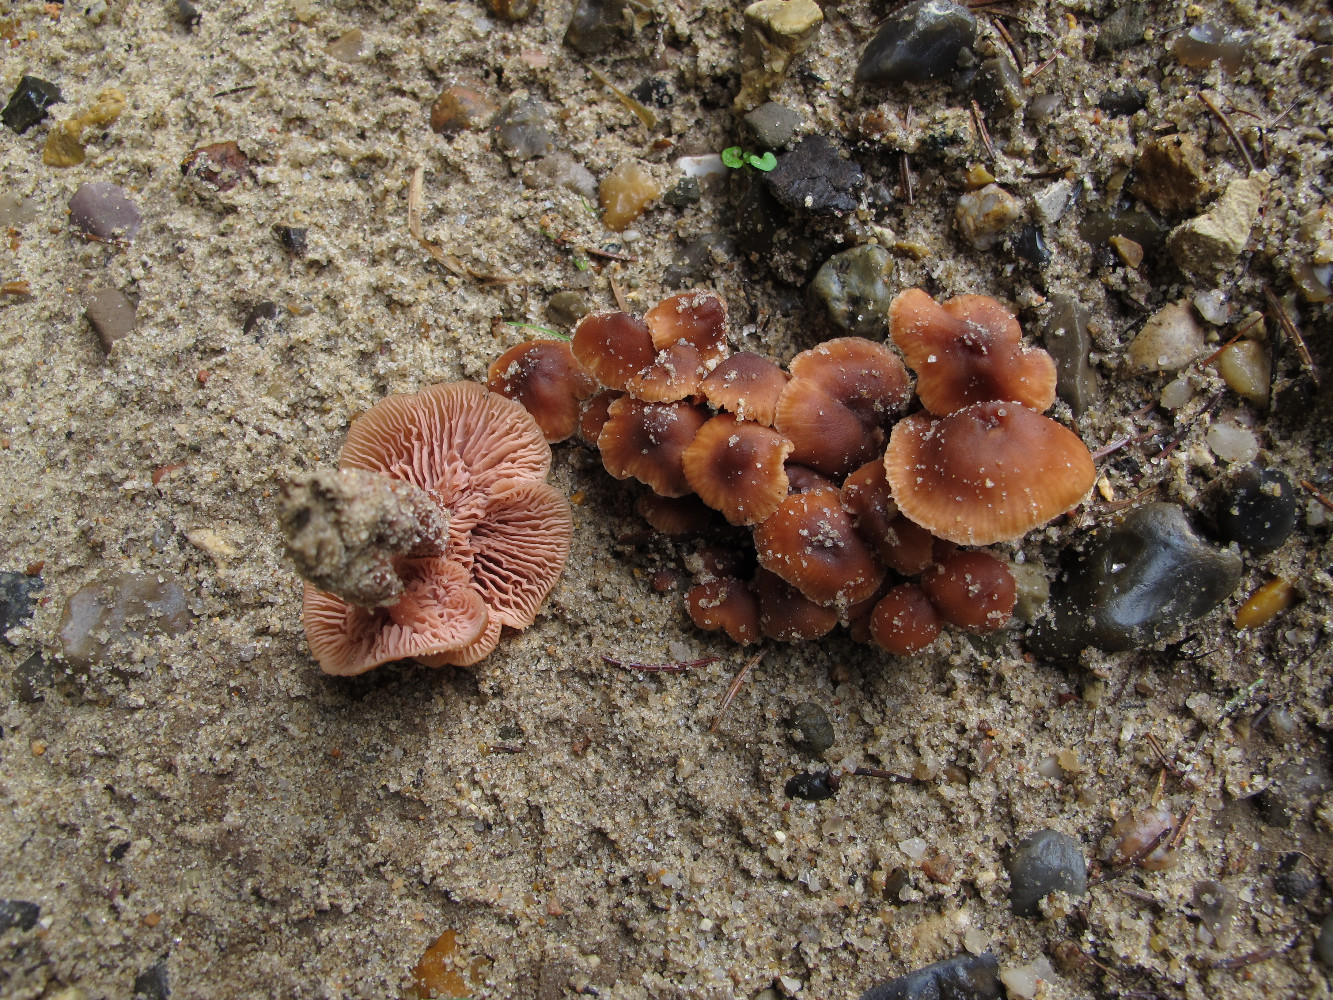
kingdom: Fungi
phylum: Basidiomycota
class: Agaricomycetes
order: Agaricales
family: Hydnangiaceae
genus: Laccaria
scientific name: Laccaria laccata
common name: rød ametysthat
